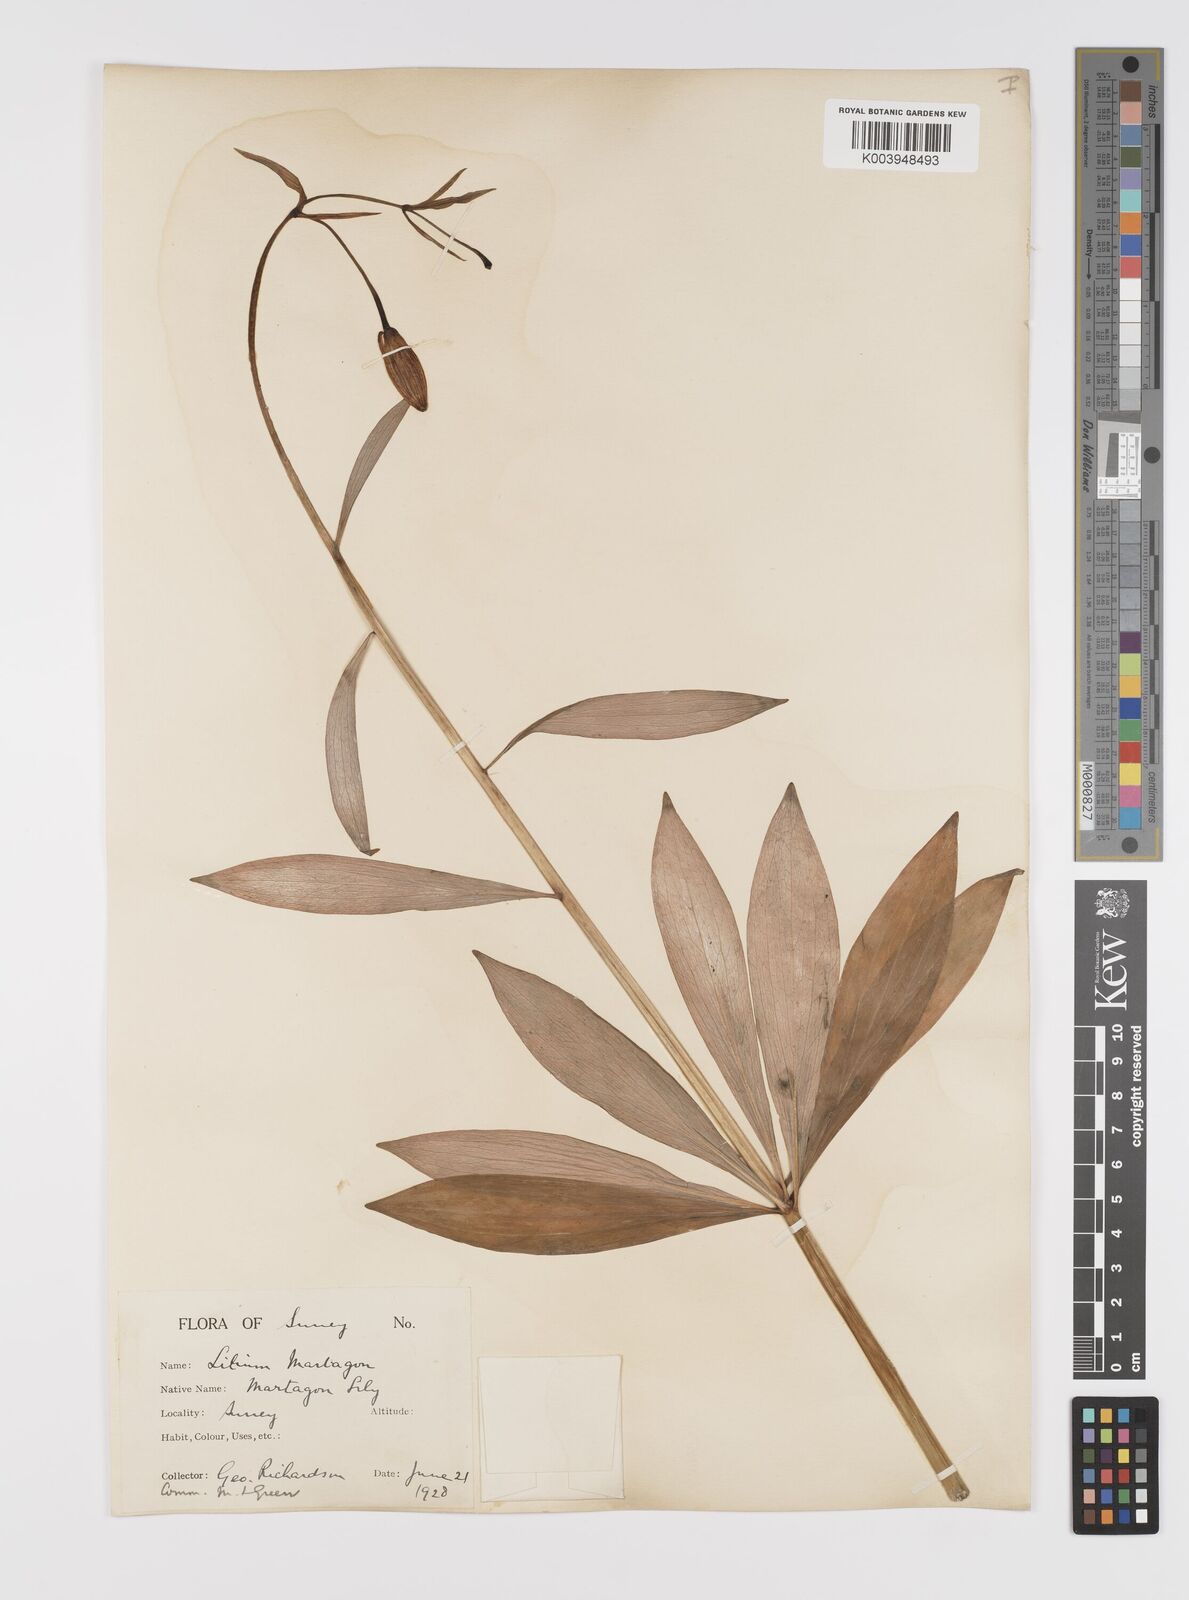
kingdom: Plantae
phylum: Tracheophyta
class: Liliopsida
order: Liliales
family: Liliaceae
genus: Lilium
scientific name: Lilium martagon
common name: Martagon lily
